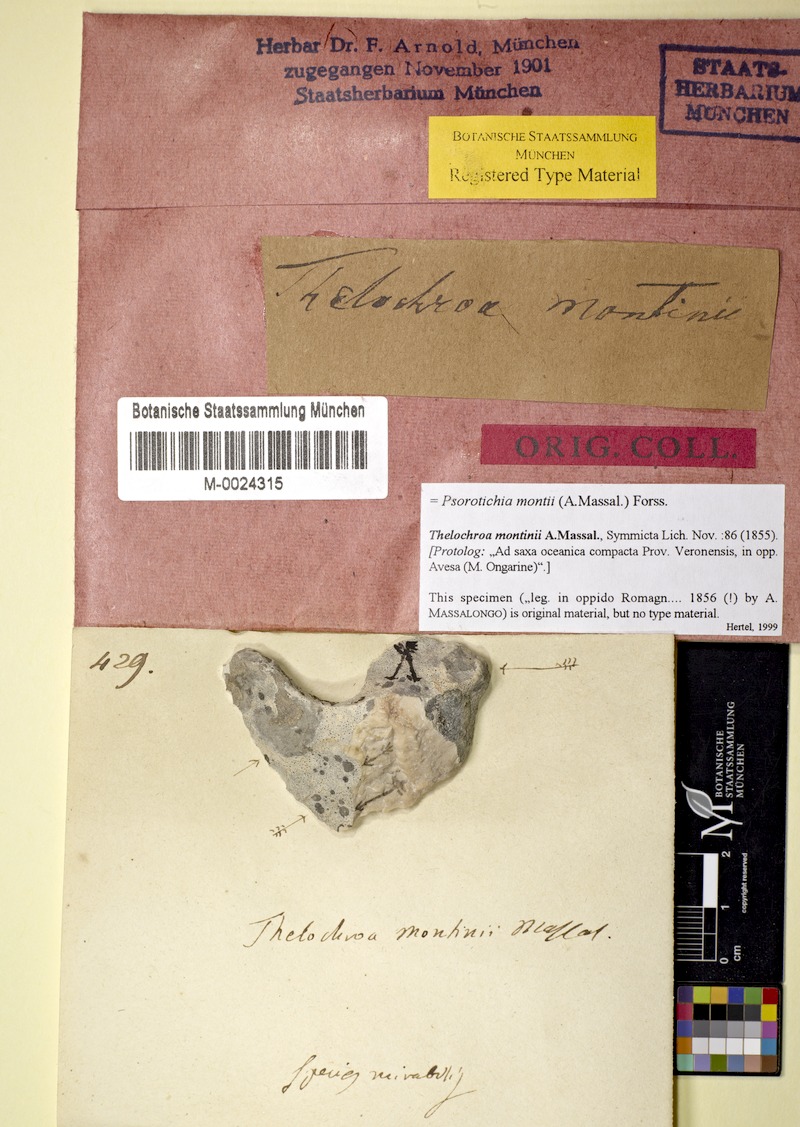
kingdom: Fungi
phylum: Ascomycota
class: Lichinomycetes
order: Lichinales
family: Lichinaceae
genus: Pyrenocarpon
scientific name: Pyrenocarpon Thelochroa montinii
